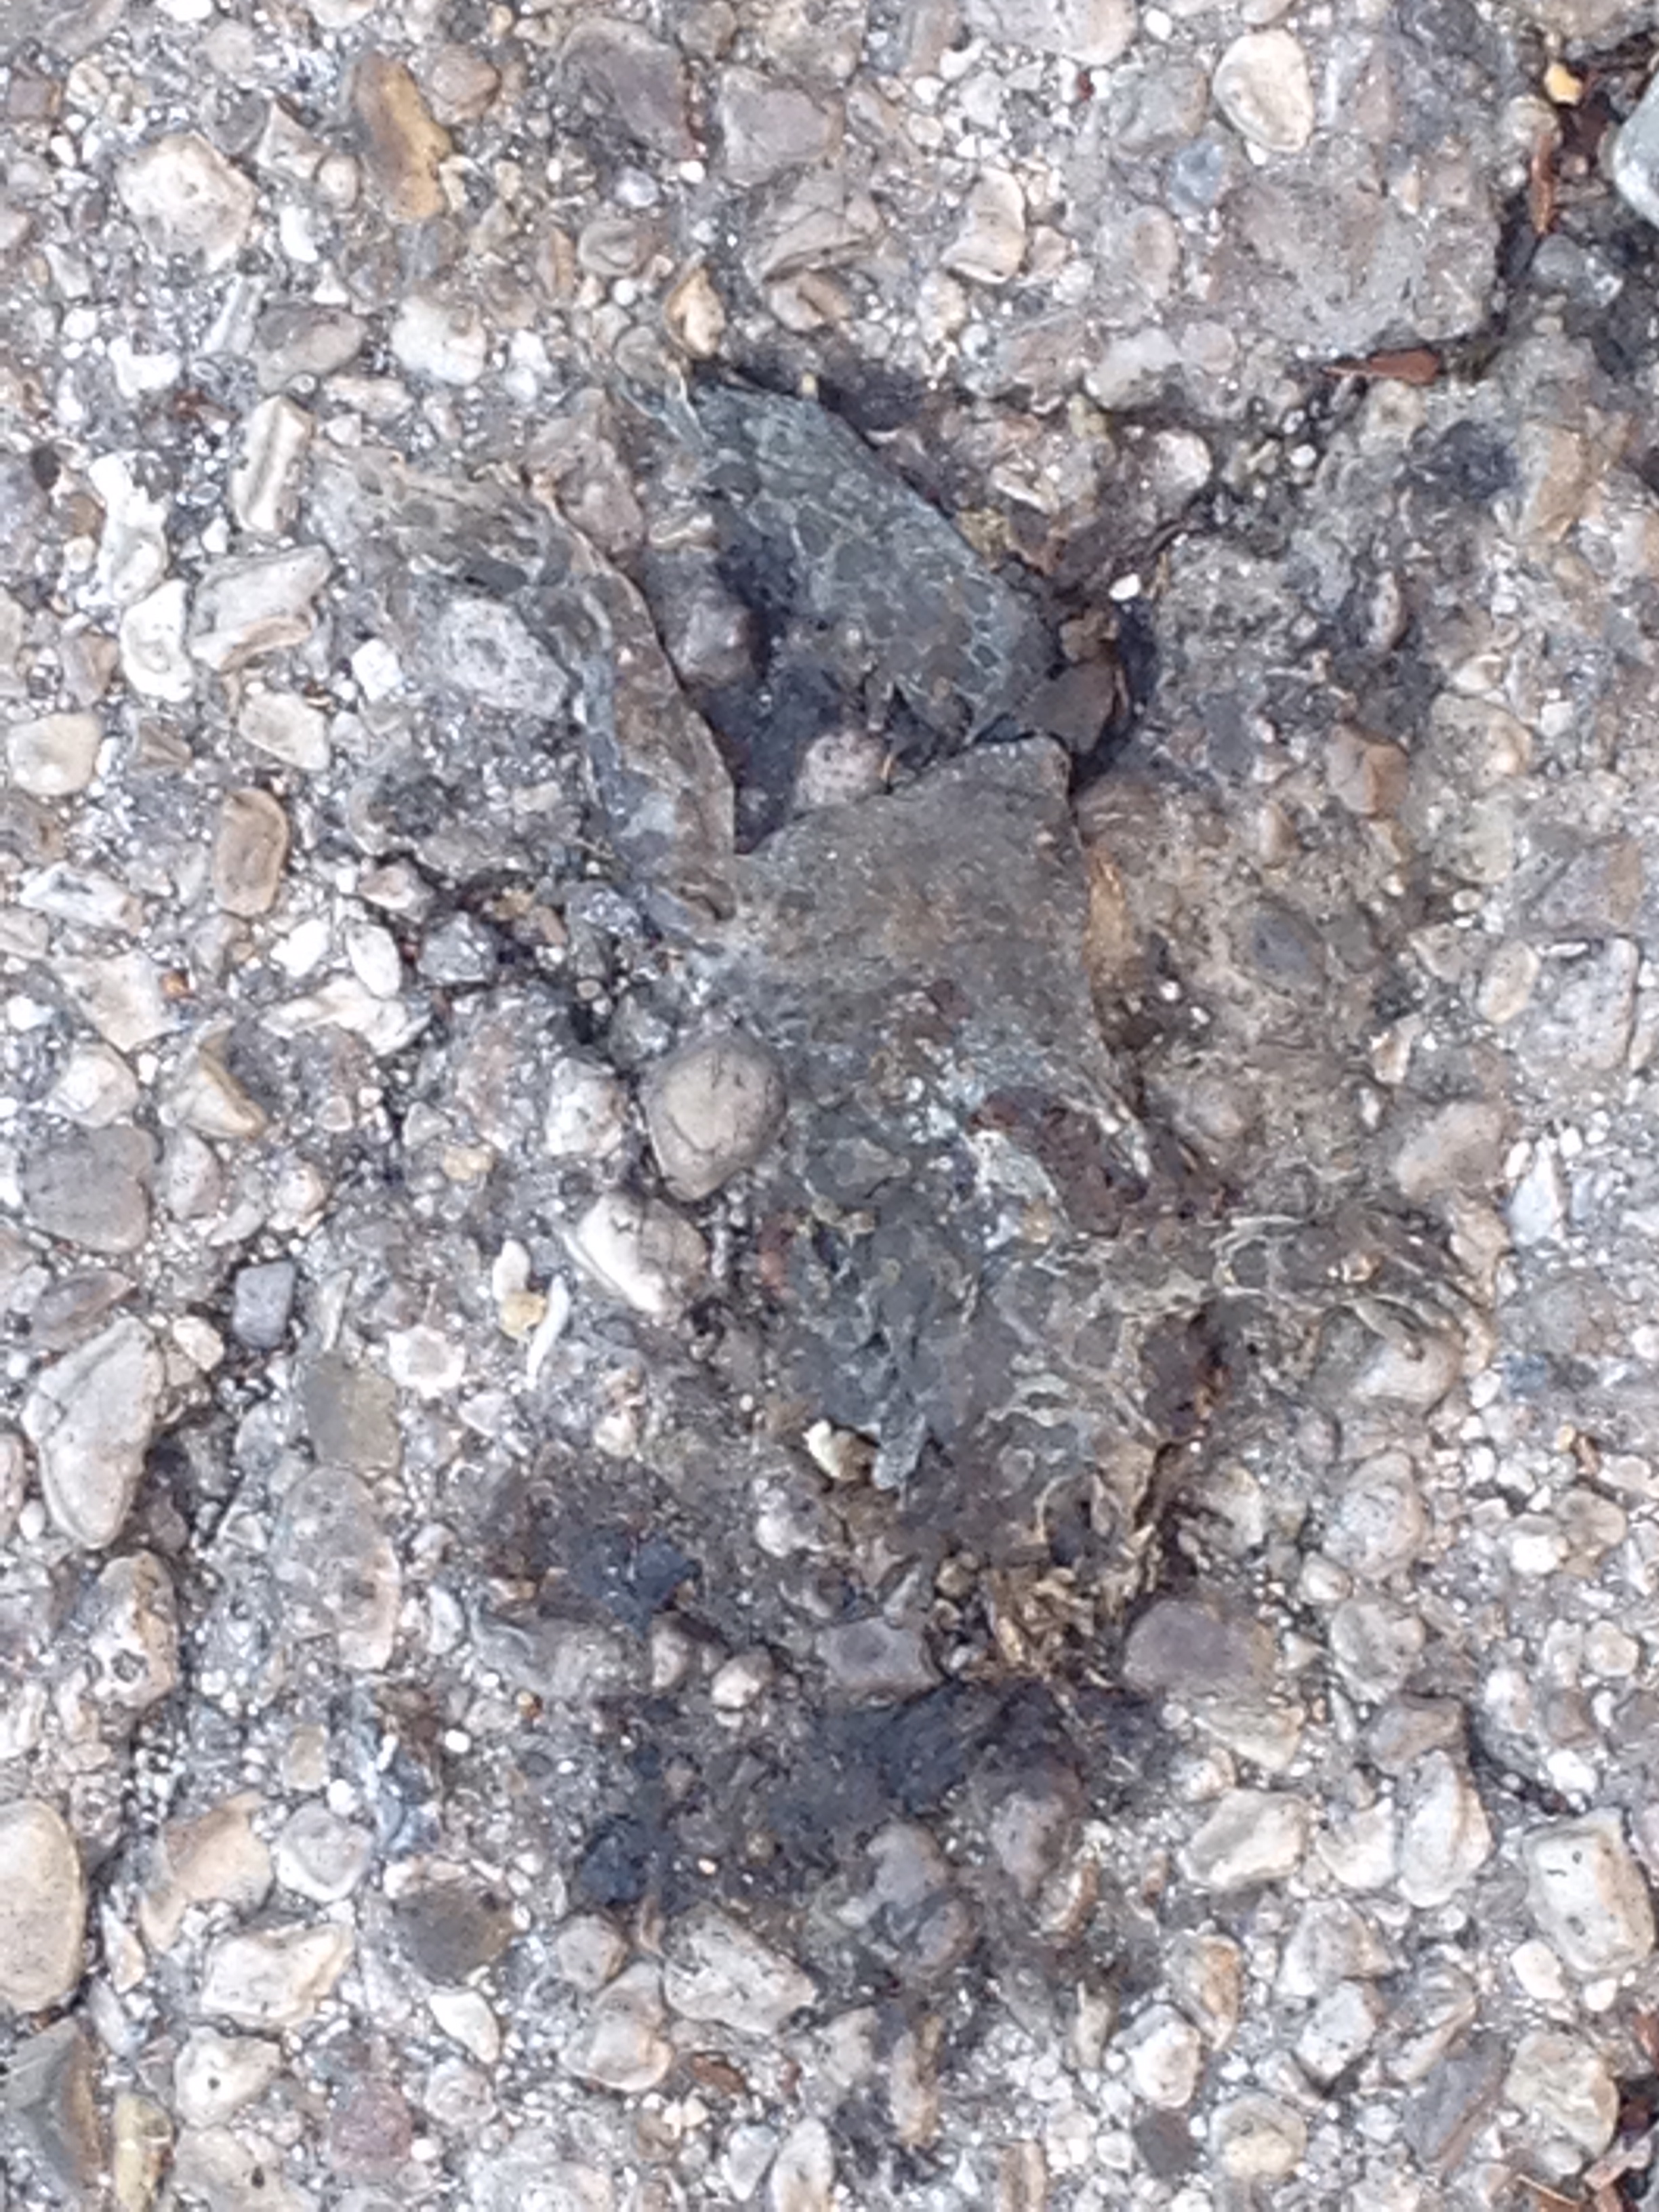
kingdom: Animalia
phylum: Chordata
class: Amphibia
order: Anura
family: Bufonidae
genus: Bufotes
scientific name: Bufotes viridis
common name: European green toad
